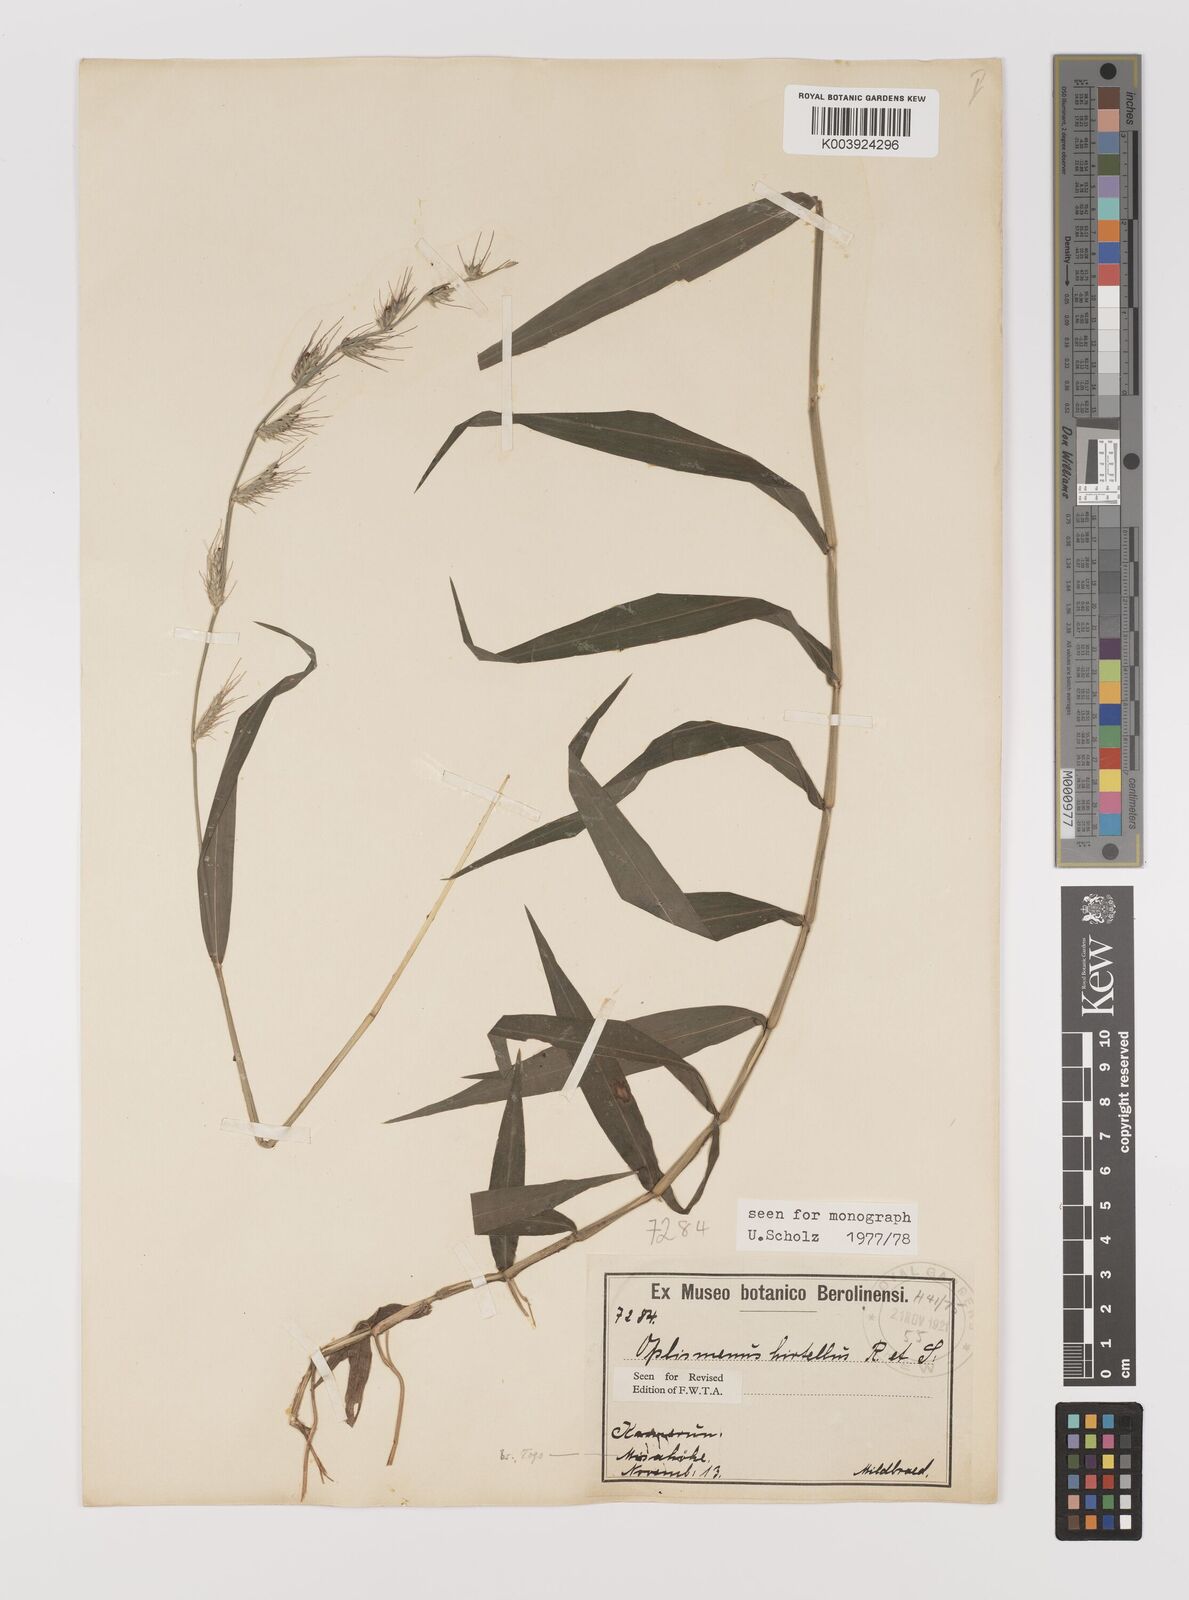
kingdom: Plantae
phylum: Tracheophyta
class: Liliopsida
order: Poales
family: Poaceae
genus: Oplismenus
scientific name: Oplismenus hirtellus
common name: Basketgrass
